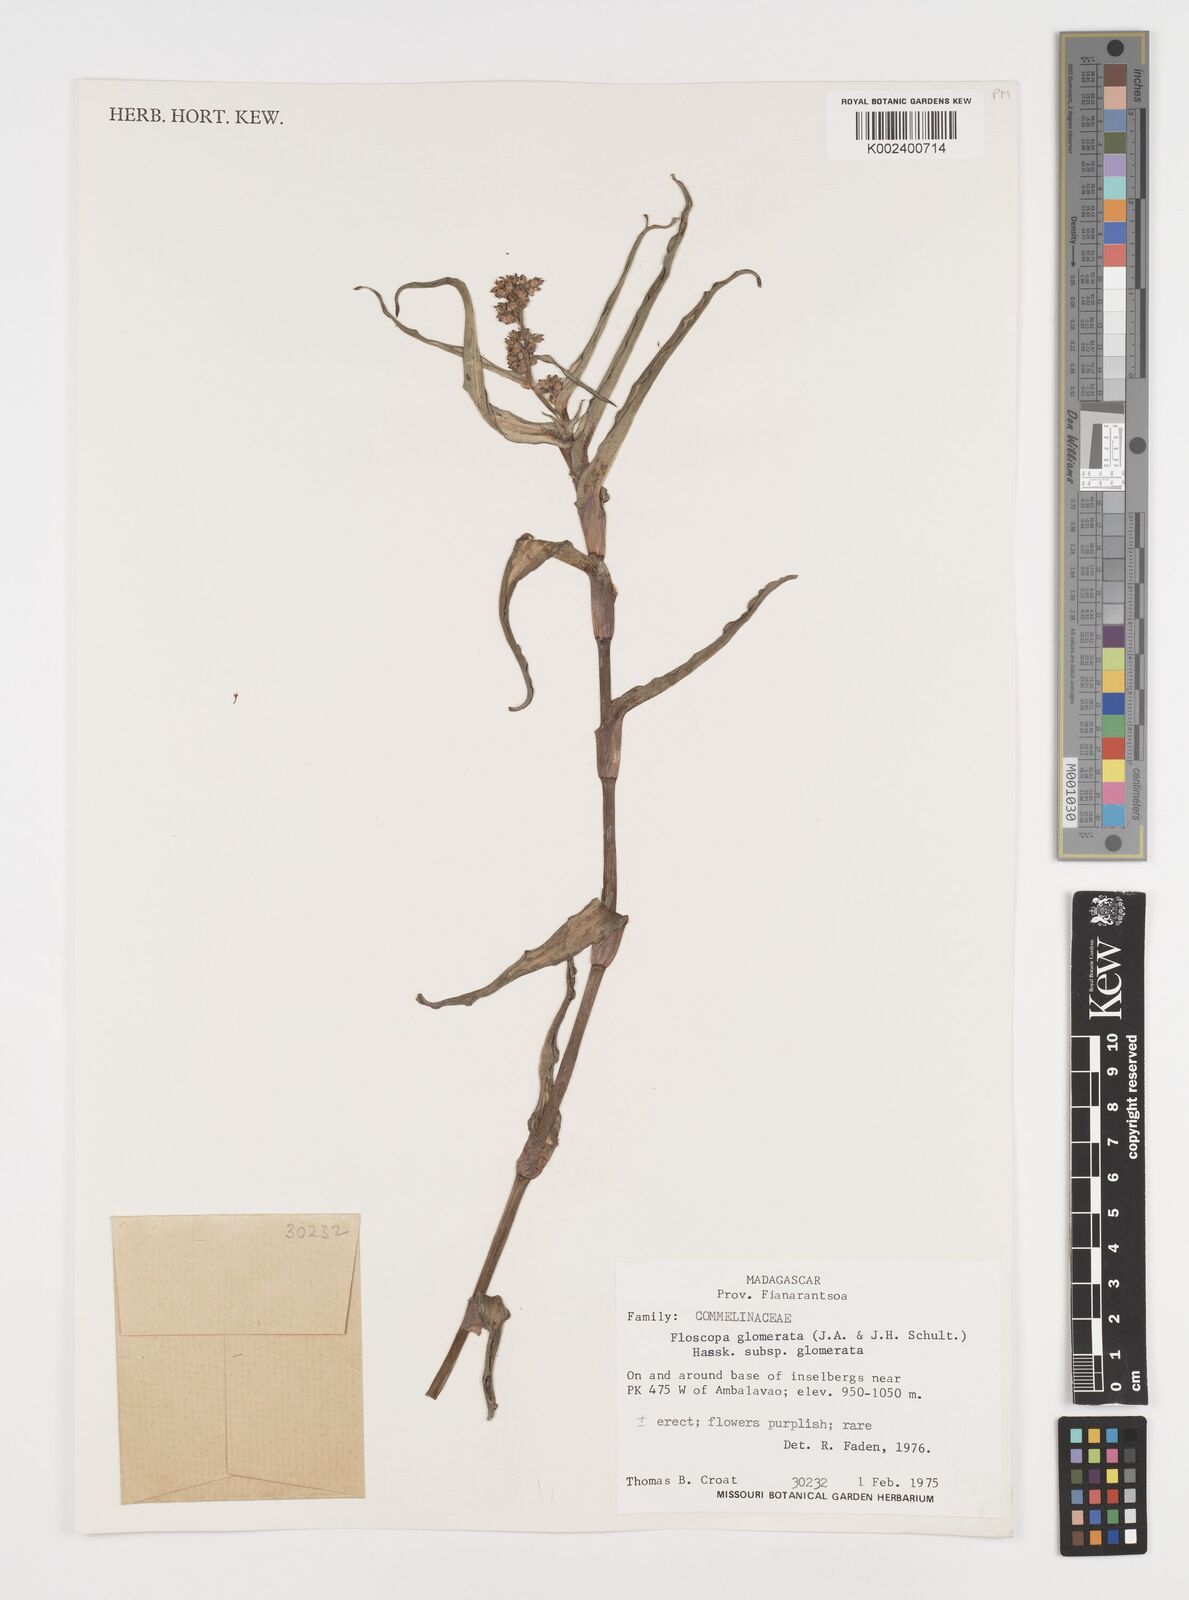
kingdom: Plantae
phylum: Tracheophyta
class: Liliopsida
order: Commelinales
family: Commelinaceae
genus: Floscopa
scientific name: Floscopa glomerata
